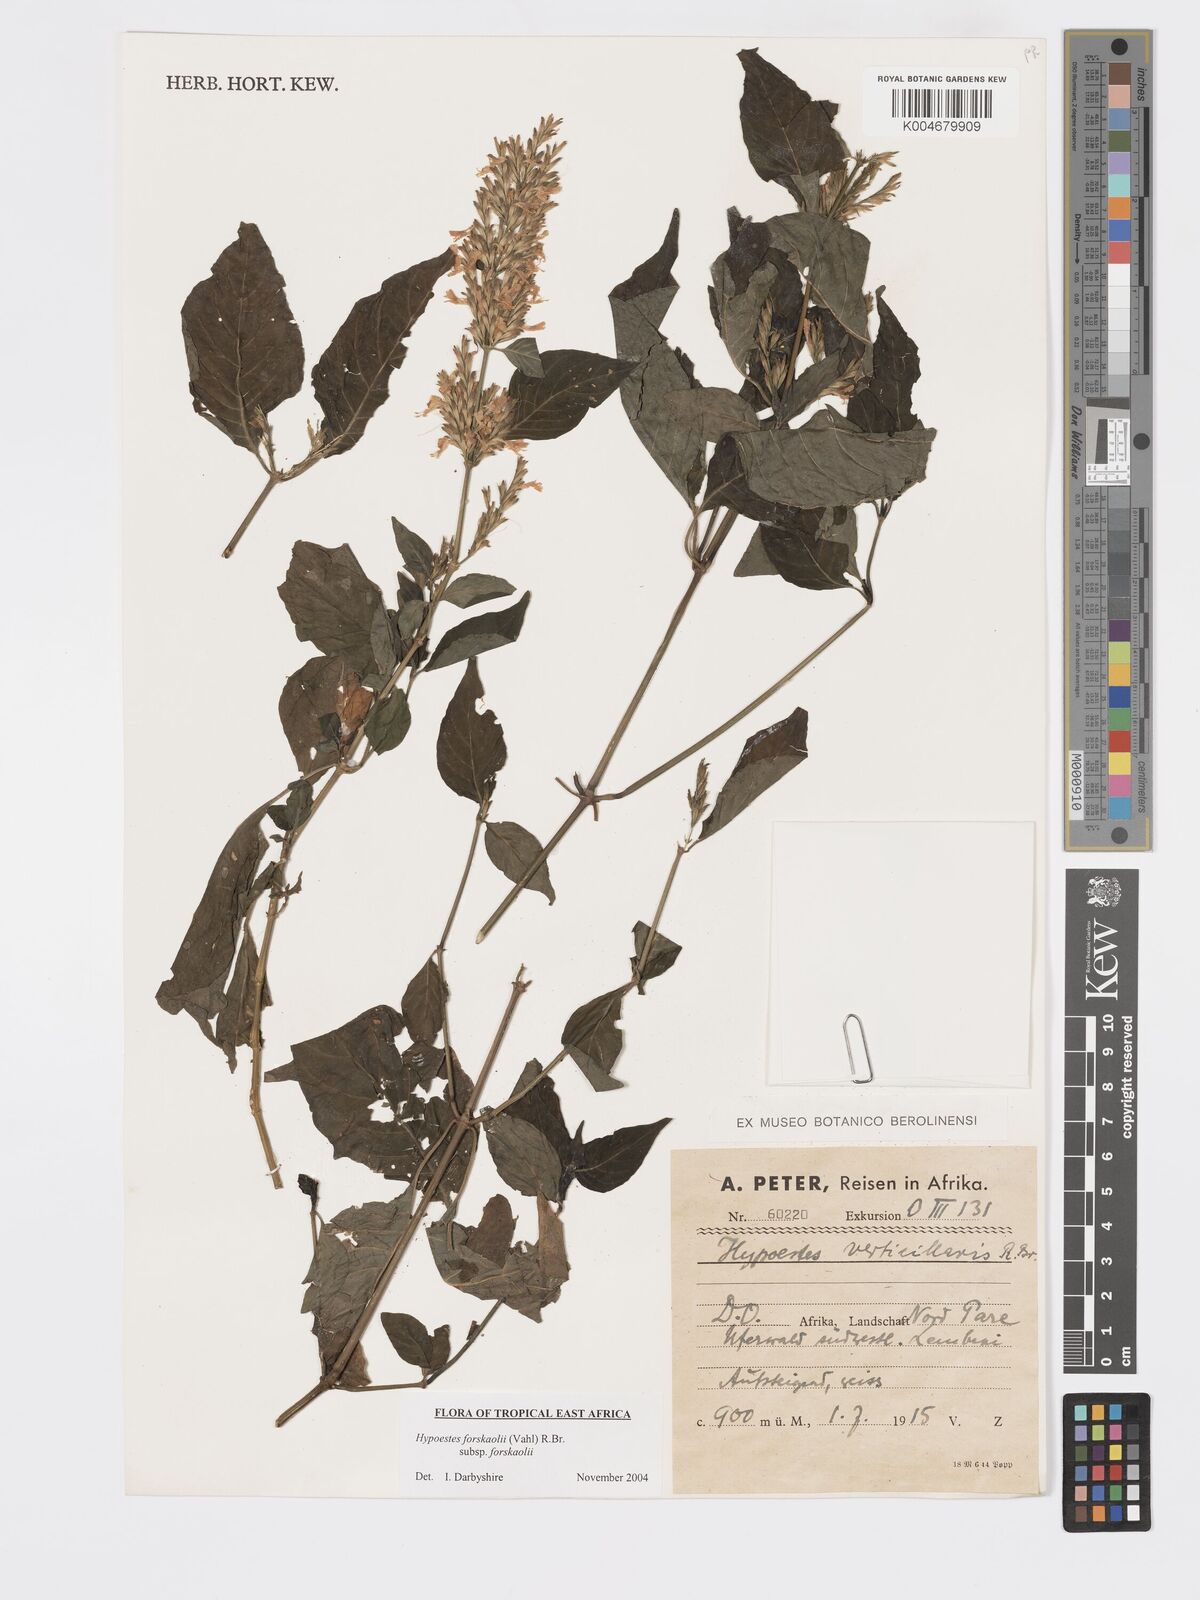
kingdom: Plantae
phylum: Tracheophyta
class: Magnoliopsida
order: Lamiales
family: Acanthaceae
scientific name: Acanthaceae
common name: Acanthaceae
